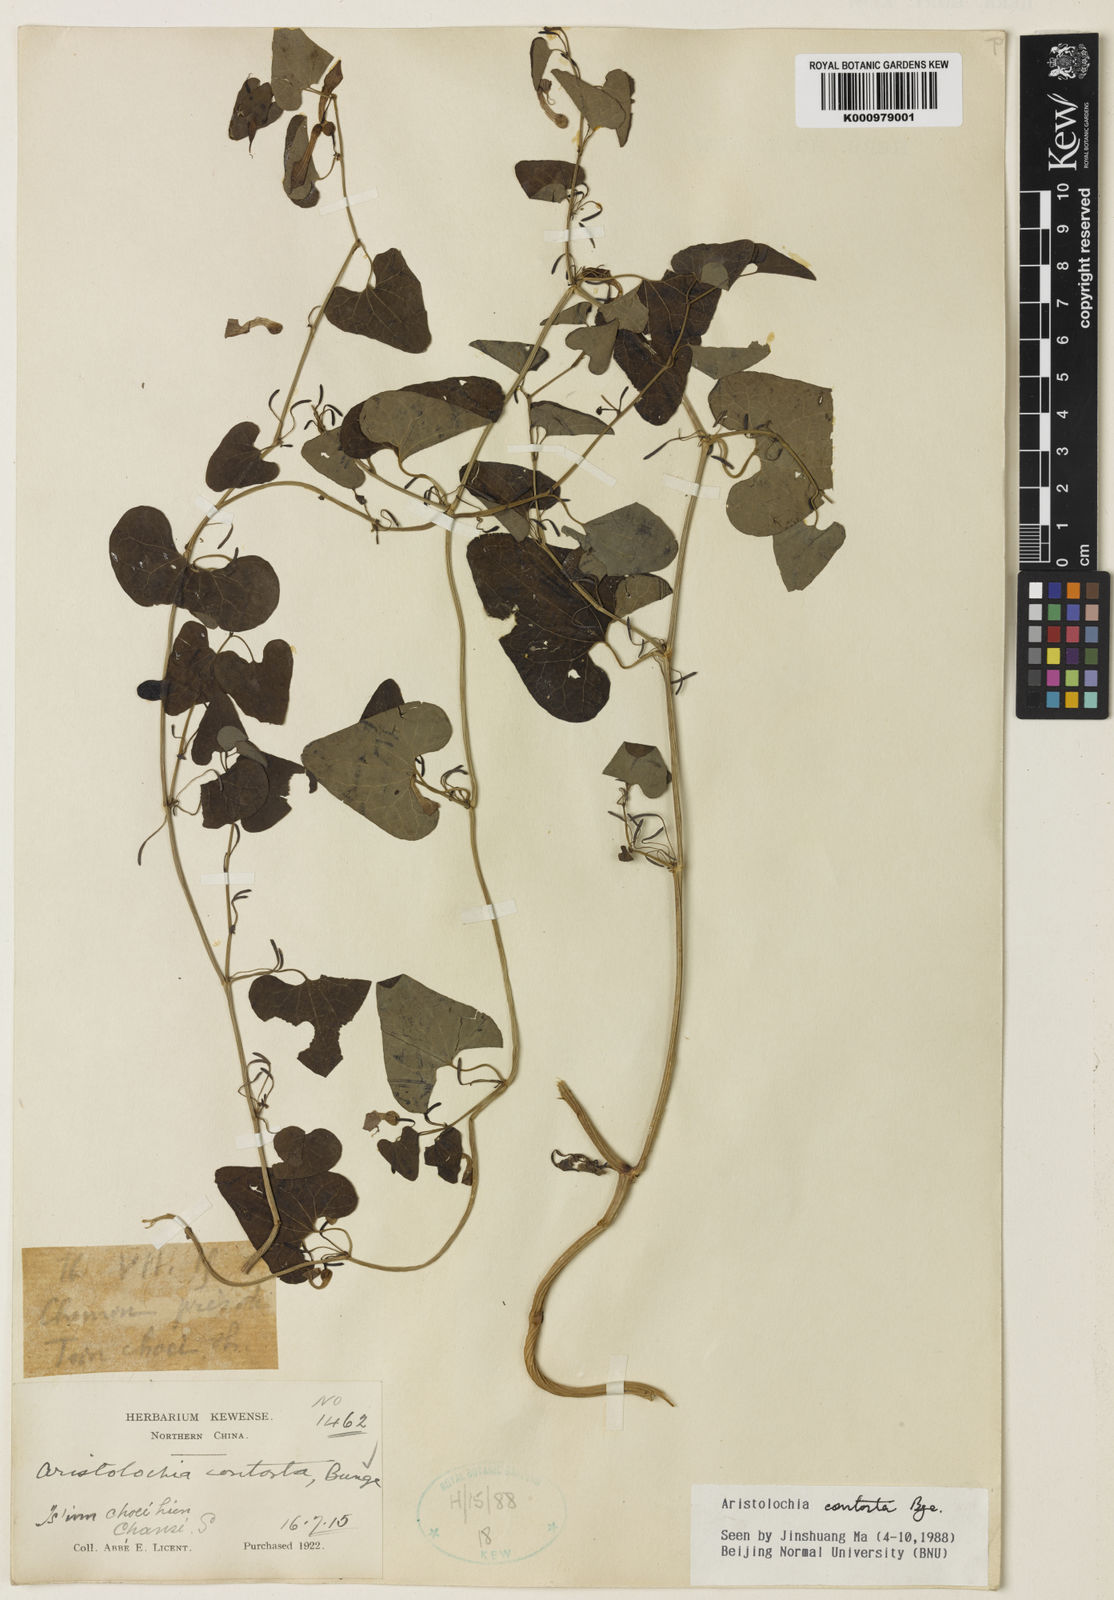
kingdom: Plantae
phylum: Tracheophyta
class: Magnoliopsida
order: Piperales
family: Aristolochiaceae
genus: Aristolochia
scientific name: Aristolochia contorta
